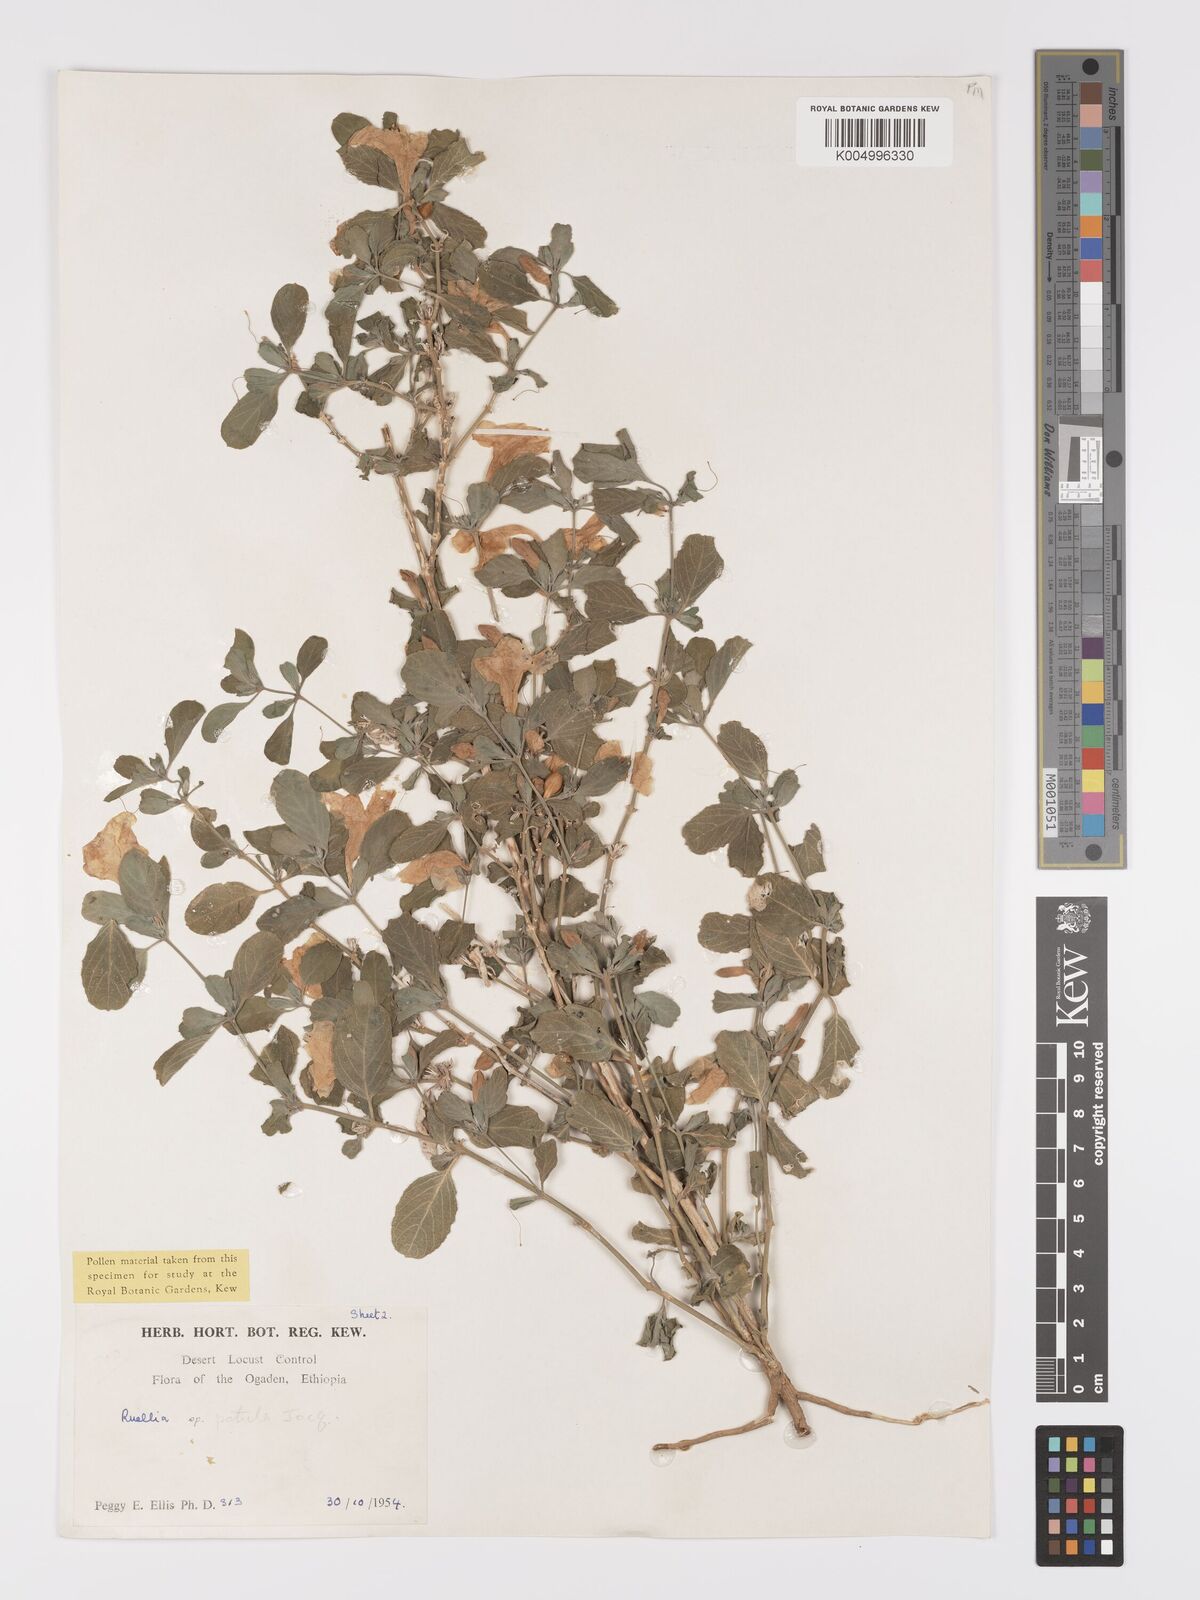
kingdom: Plantae
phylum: Tracheophyta
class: Magnoliopsida
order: Lamiales
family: Acanthaceae
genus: Ruellia
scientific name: Ruellia patula
